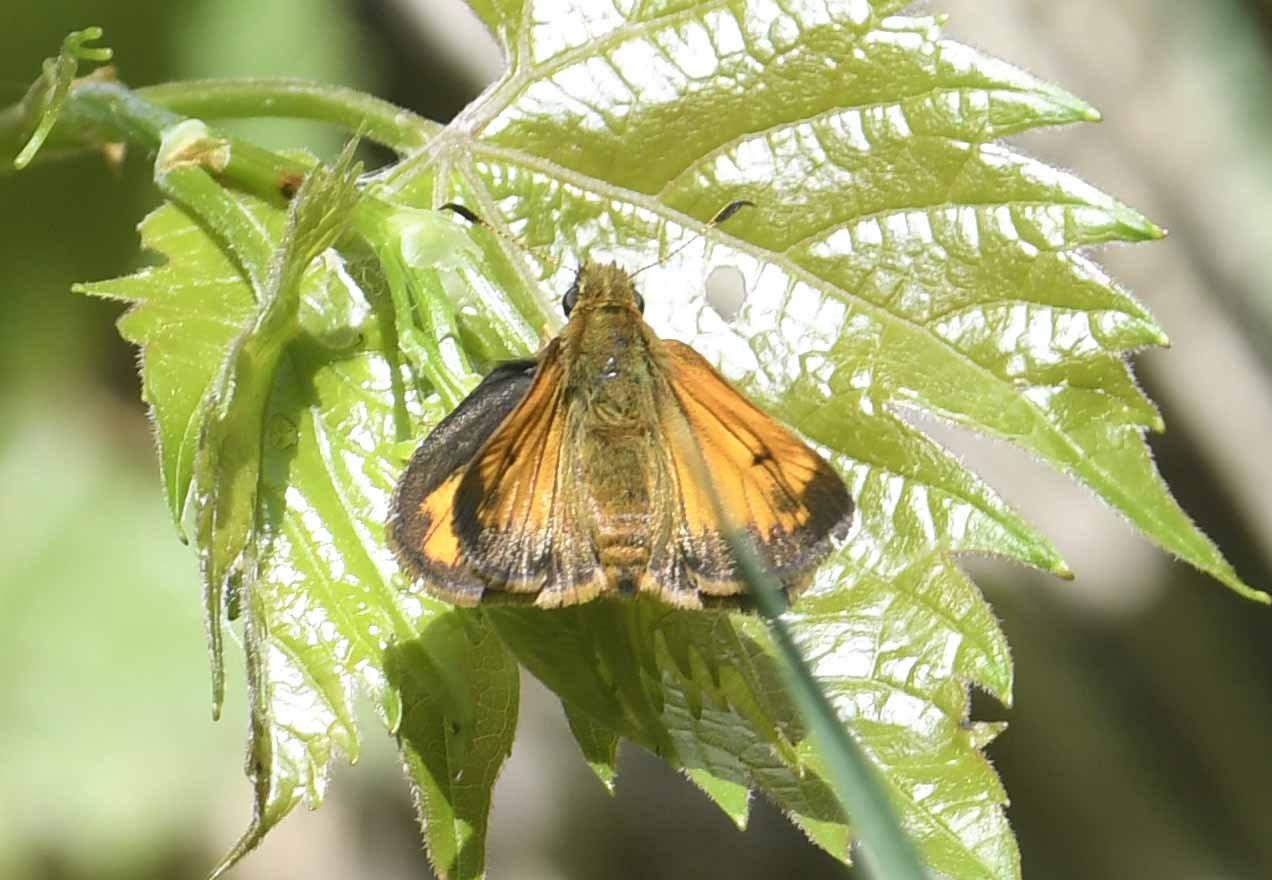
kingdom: Animalia
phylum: Arthropoda
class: Insecta
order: Lepidoptera
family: Hesperiidae
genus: Lon
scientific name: Lon hobomok
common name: Hobomok Skipper
